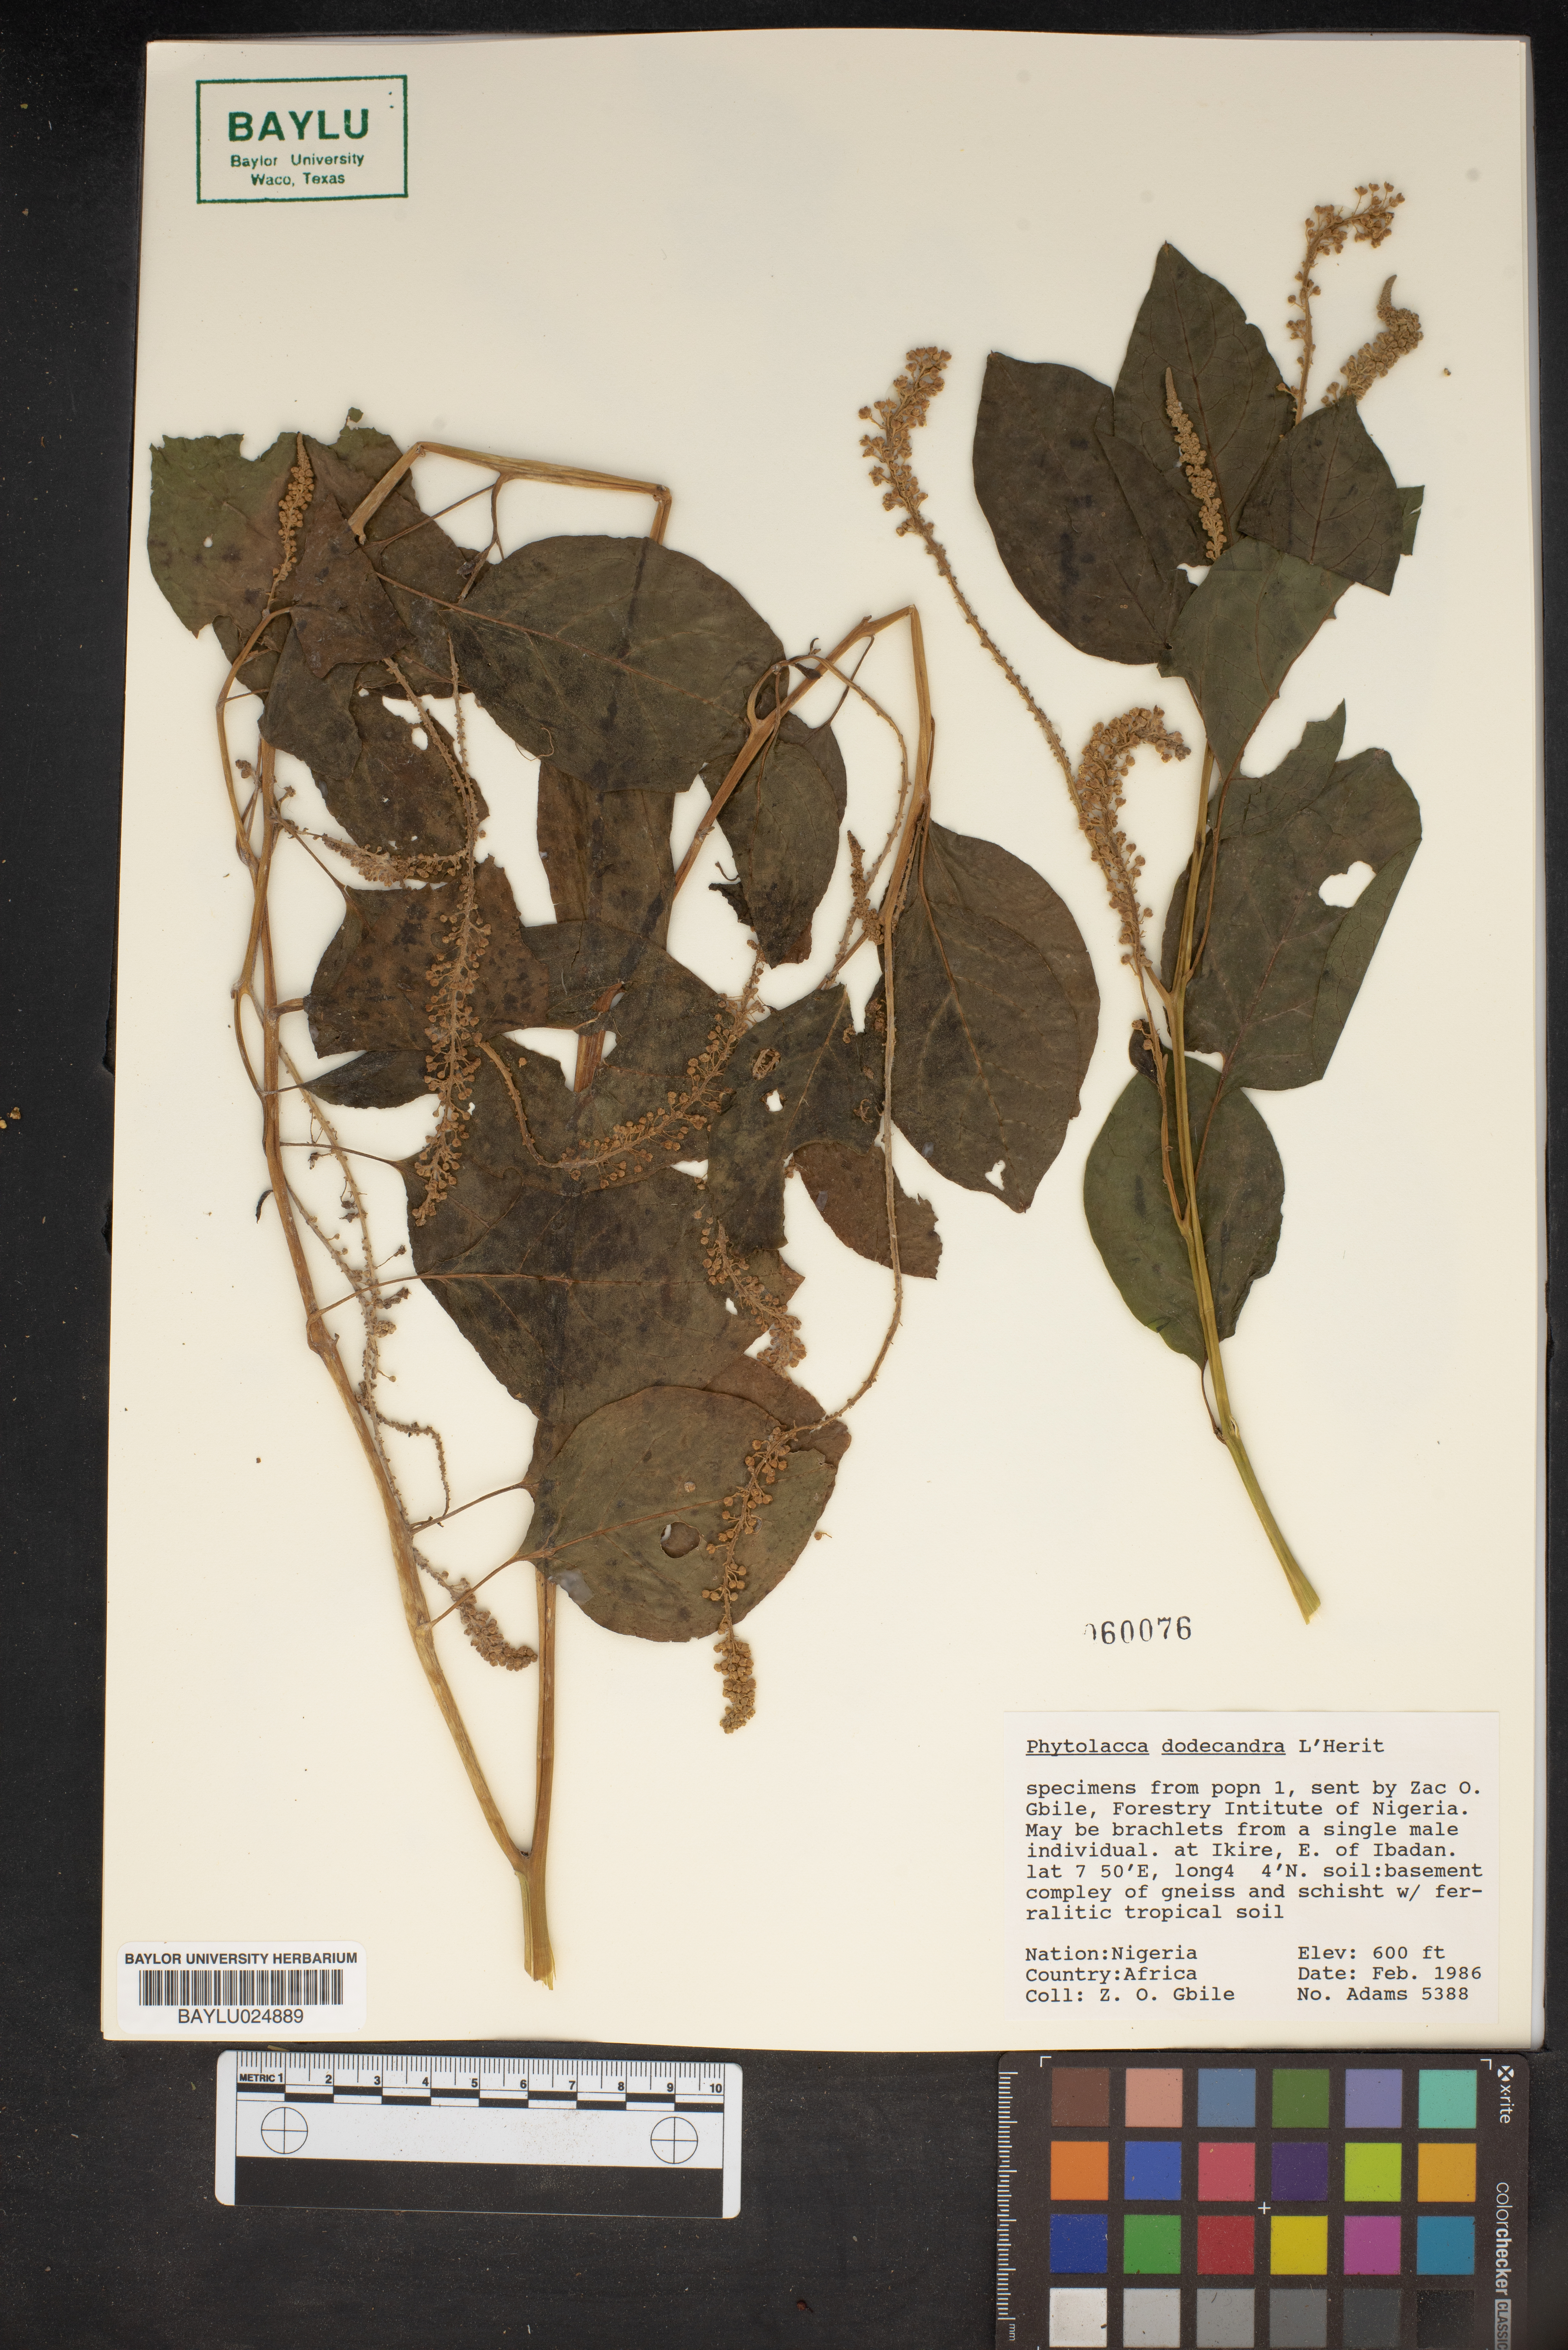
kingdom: Plantae
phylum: Tracheophyta
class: Magnoliopsida
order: Caryophyllales
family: Phytolaccaceae
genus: Phytolacca
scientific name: Phytolacca dodecandra
